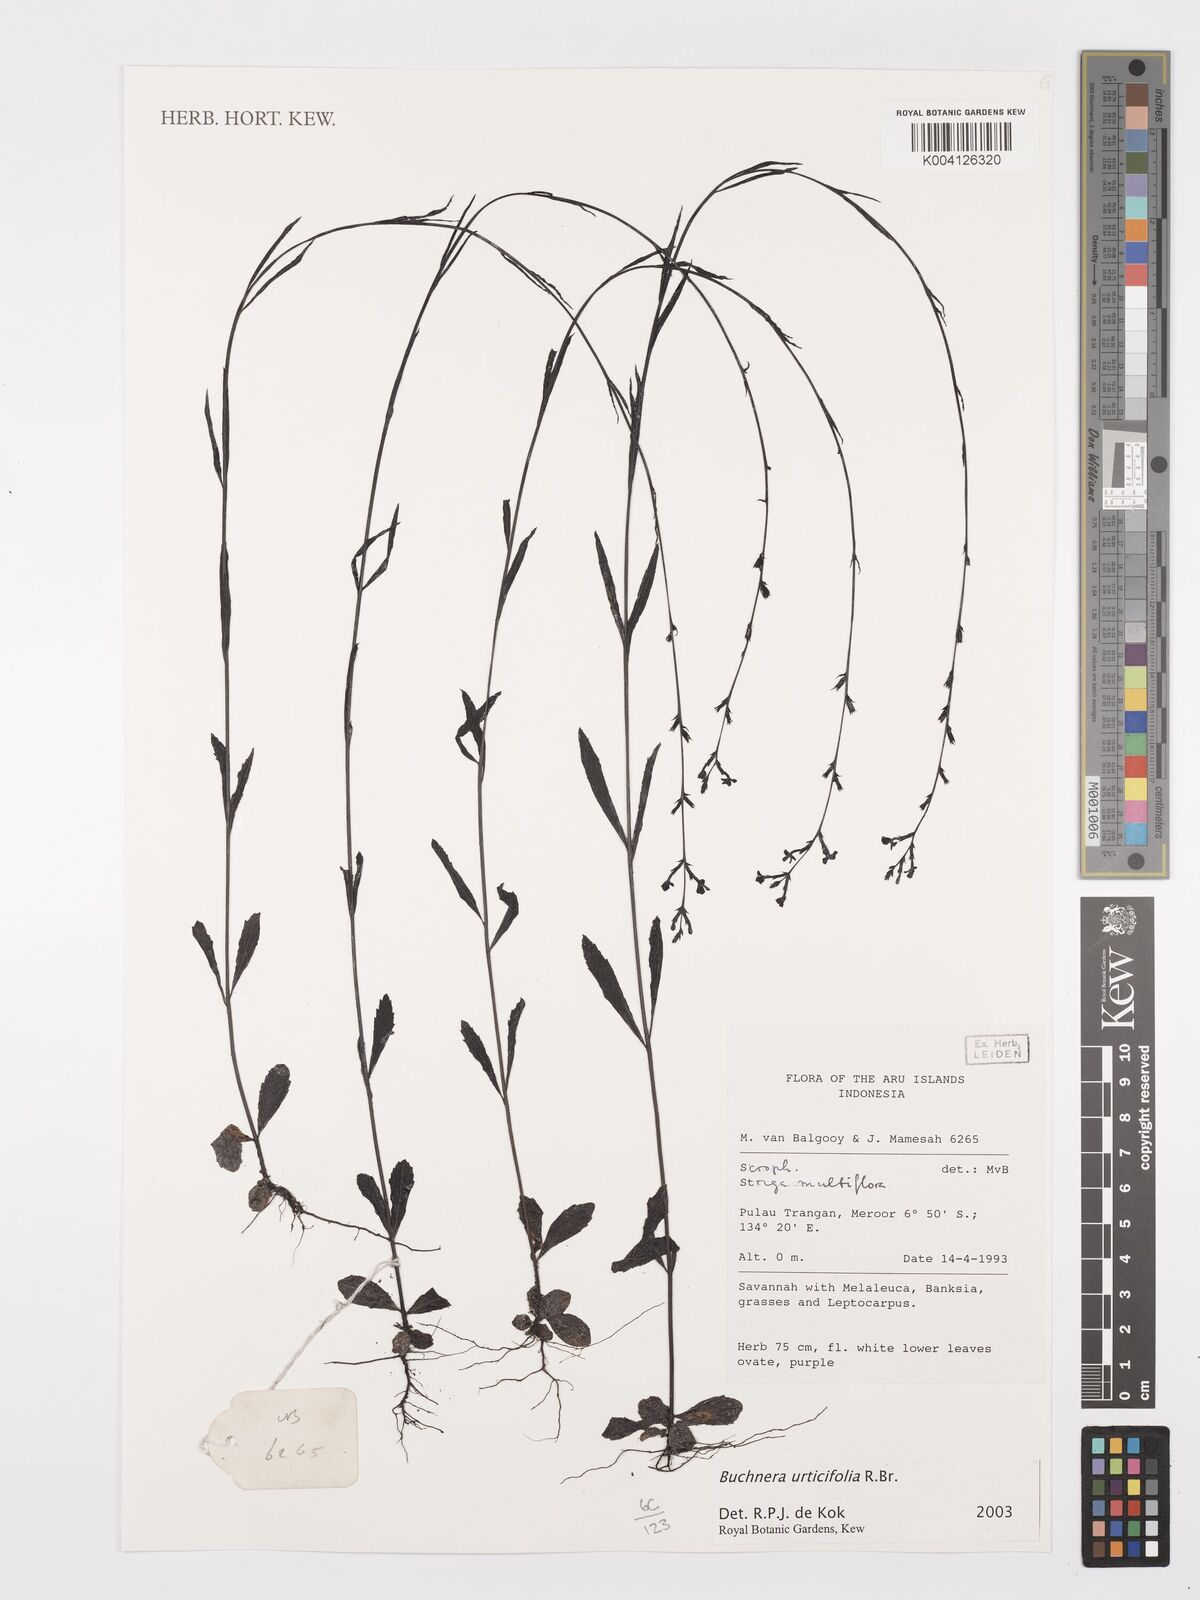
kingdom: Plantae
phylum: Tracheophyta
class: Magnoliopsida
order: Lamiales
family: Orobanchaceae
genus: Buchnera
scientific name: Buchnera urticifolia
